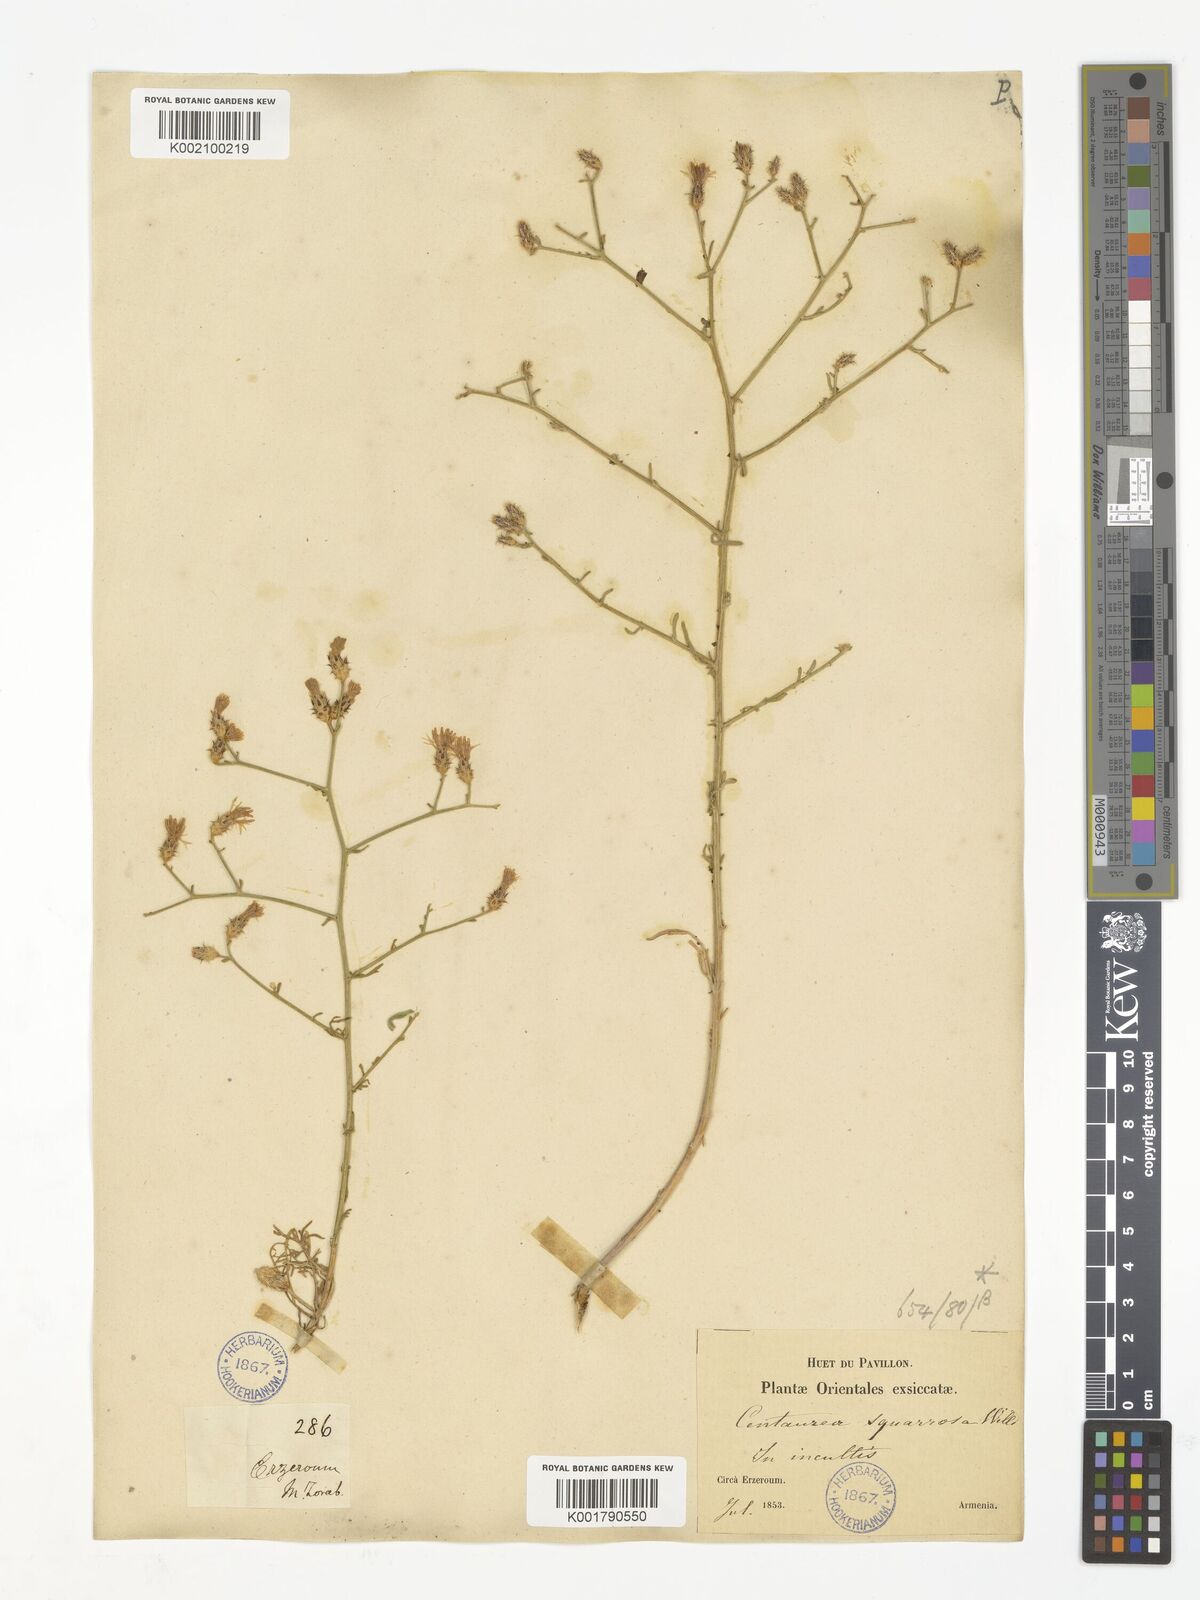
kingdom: Plantae
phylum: Tracheophyta
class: Magnoliopsida
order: Asterales
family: Asteraceae
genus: Centaurea
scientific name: Centaurea besseriana
